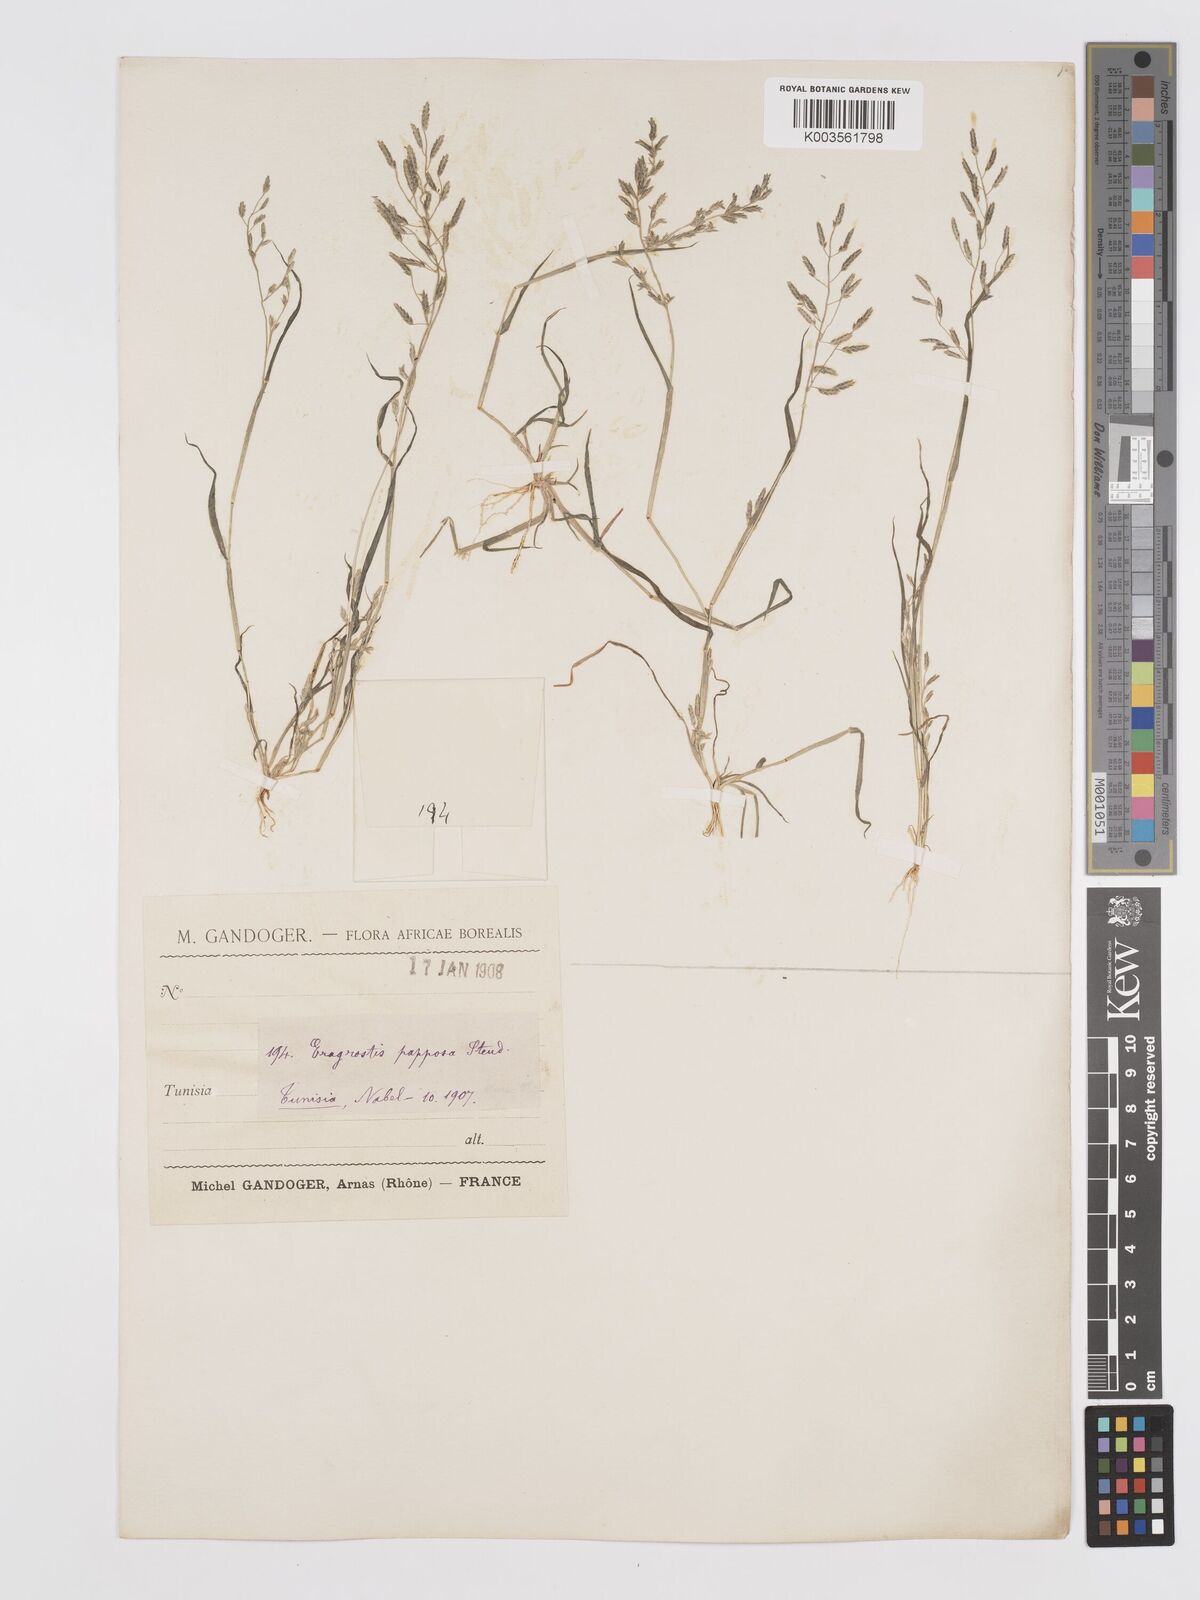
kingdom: Plantae
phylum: Tracheophyta
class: Liliopsida
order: Poales
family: Poaceae
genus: Eragrostis
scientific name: Eragrostis barrelieri
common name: Mediterranean lovegrass
